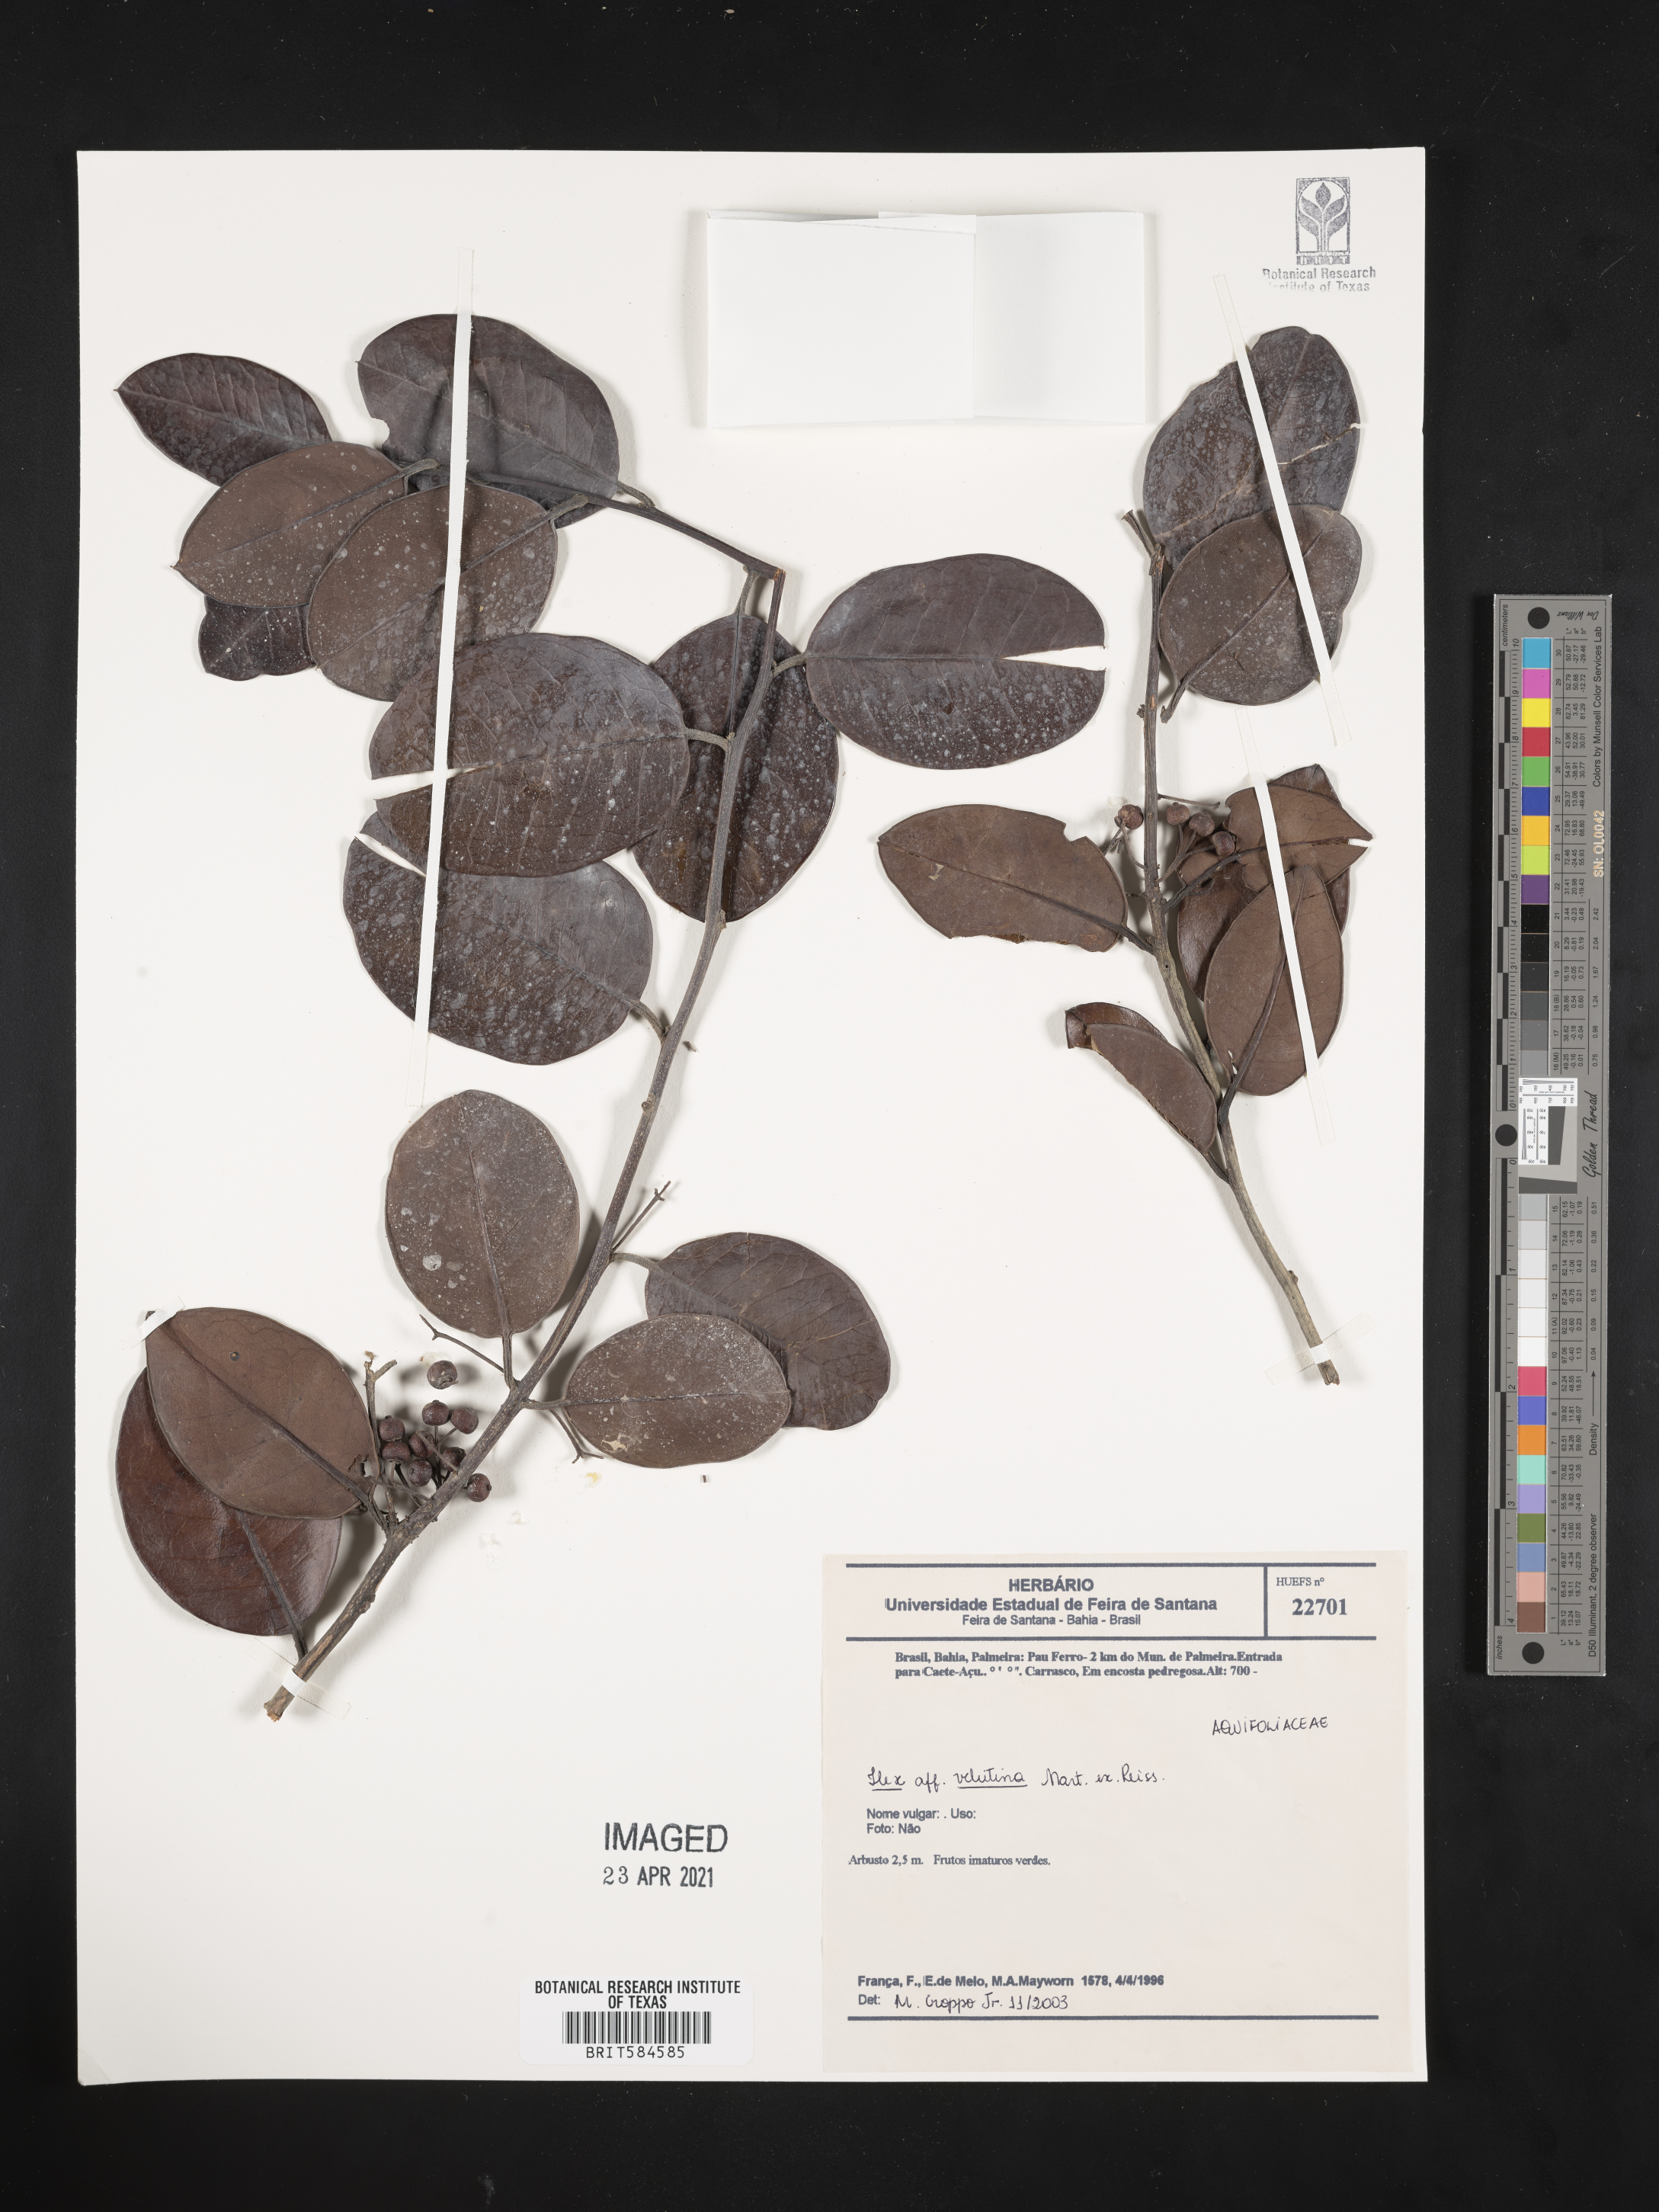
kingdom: Plantae
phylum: Tracheophyta
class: Magnoliopsida
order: Aquifoliales
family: Aquifoliaceae
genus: Ilex
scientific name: Ilex velutina
